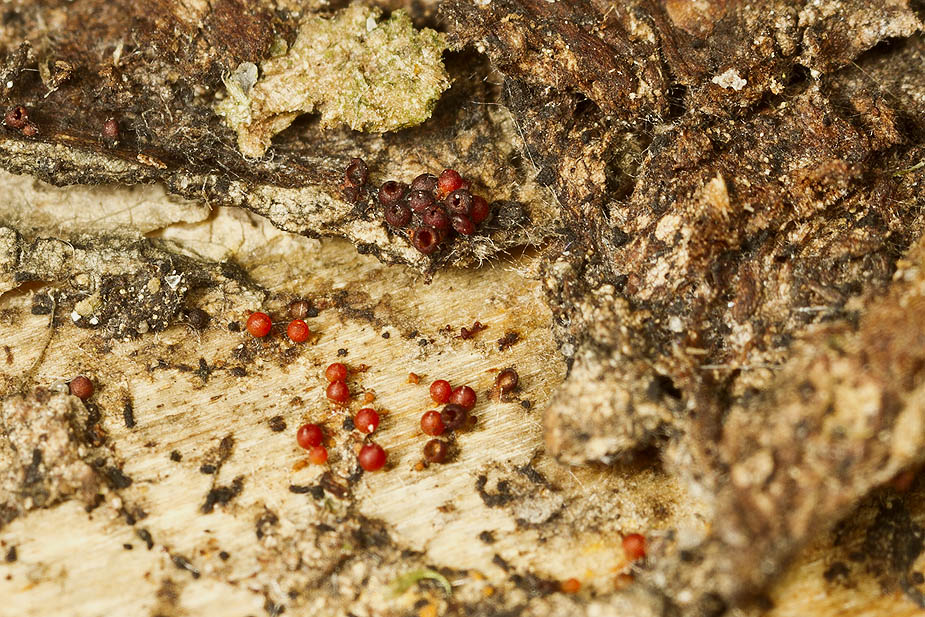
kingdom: Fungi
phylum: Ascomycota
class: Sordariomycetes
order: Hypocreales
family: Nectriaceae
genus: Corinectria
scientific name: Corinectria fuckeliana
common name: grankræft-cinnobersvamp
